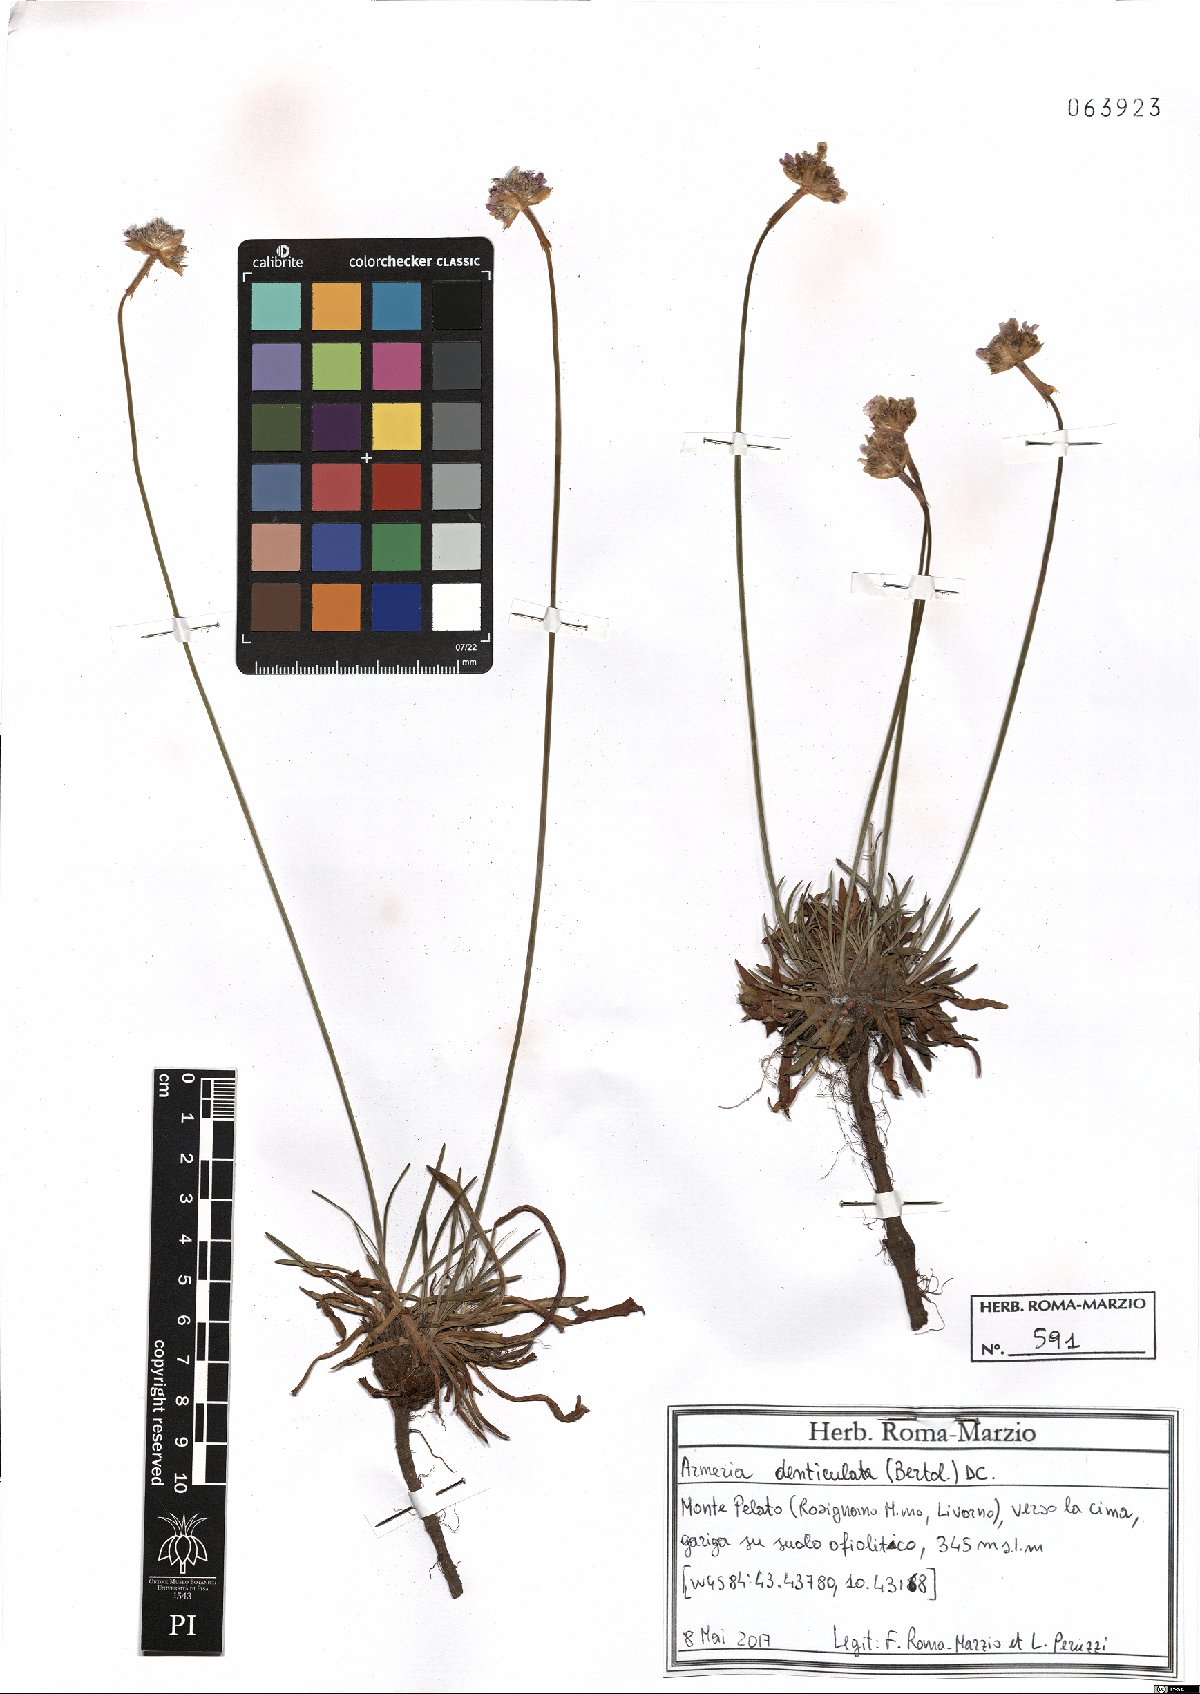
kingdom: Plantae
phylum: Tracheophyta
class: Magnoliopsida
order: Caryophyllales
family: Plumbaginaceae
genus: Armeria
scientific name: Armeria denticulata
